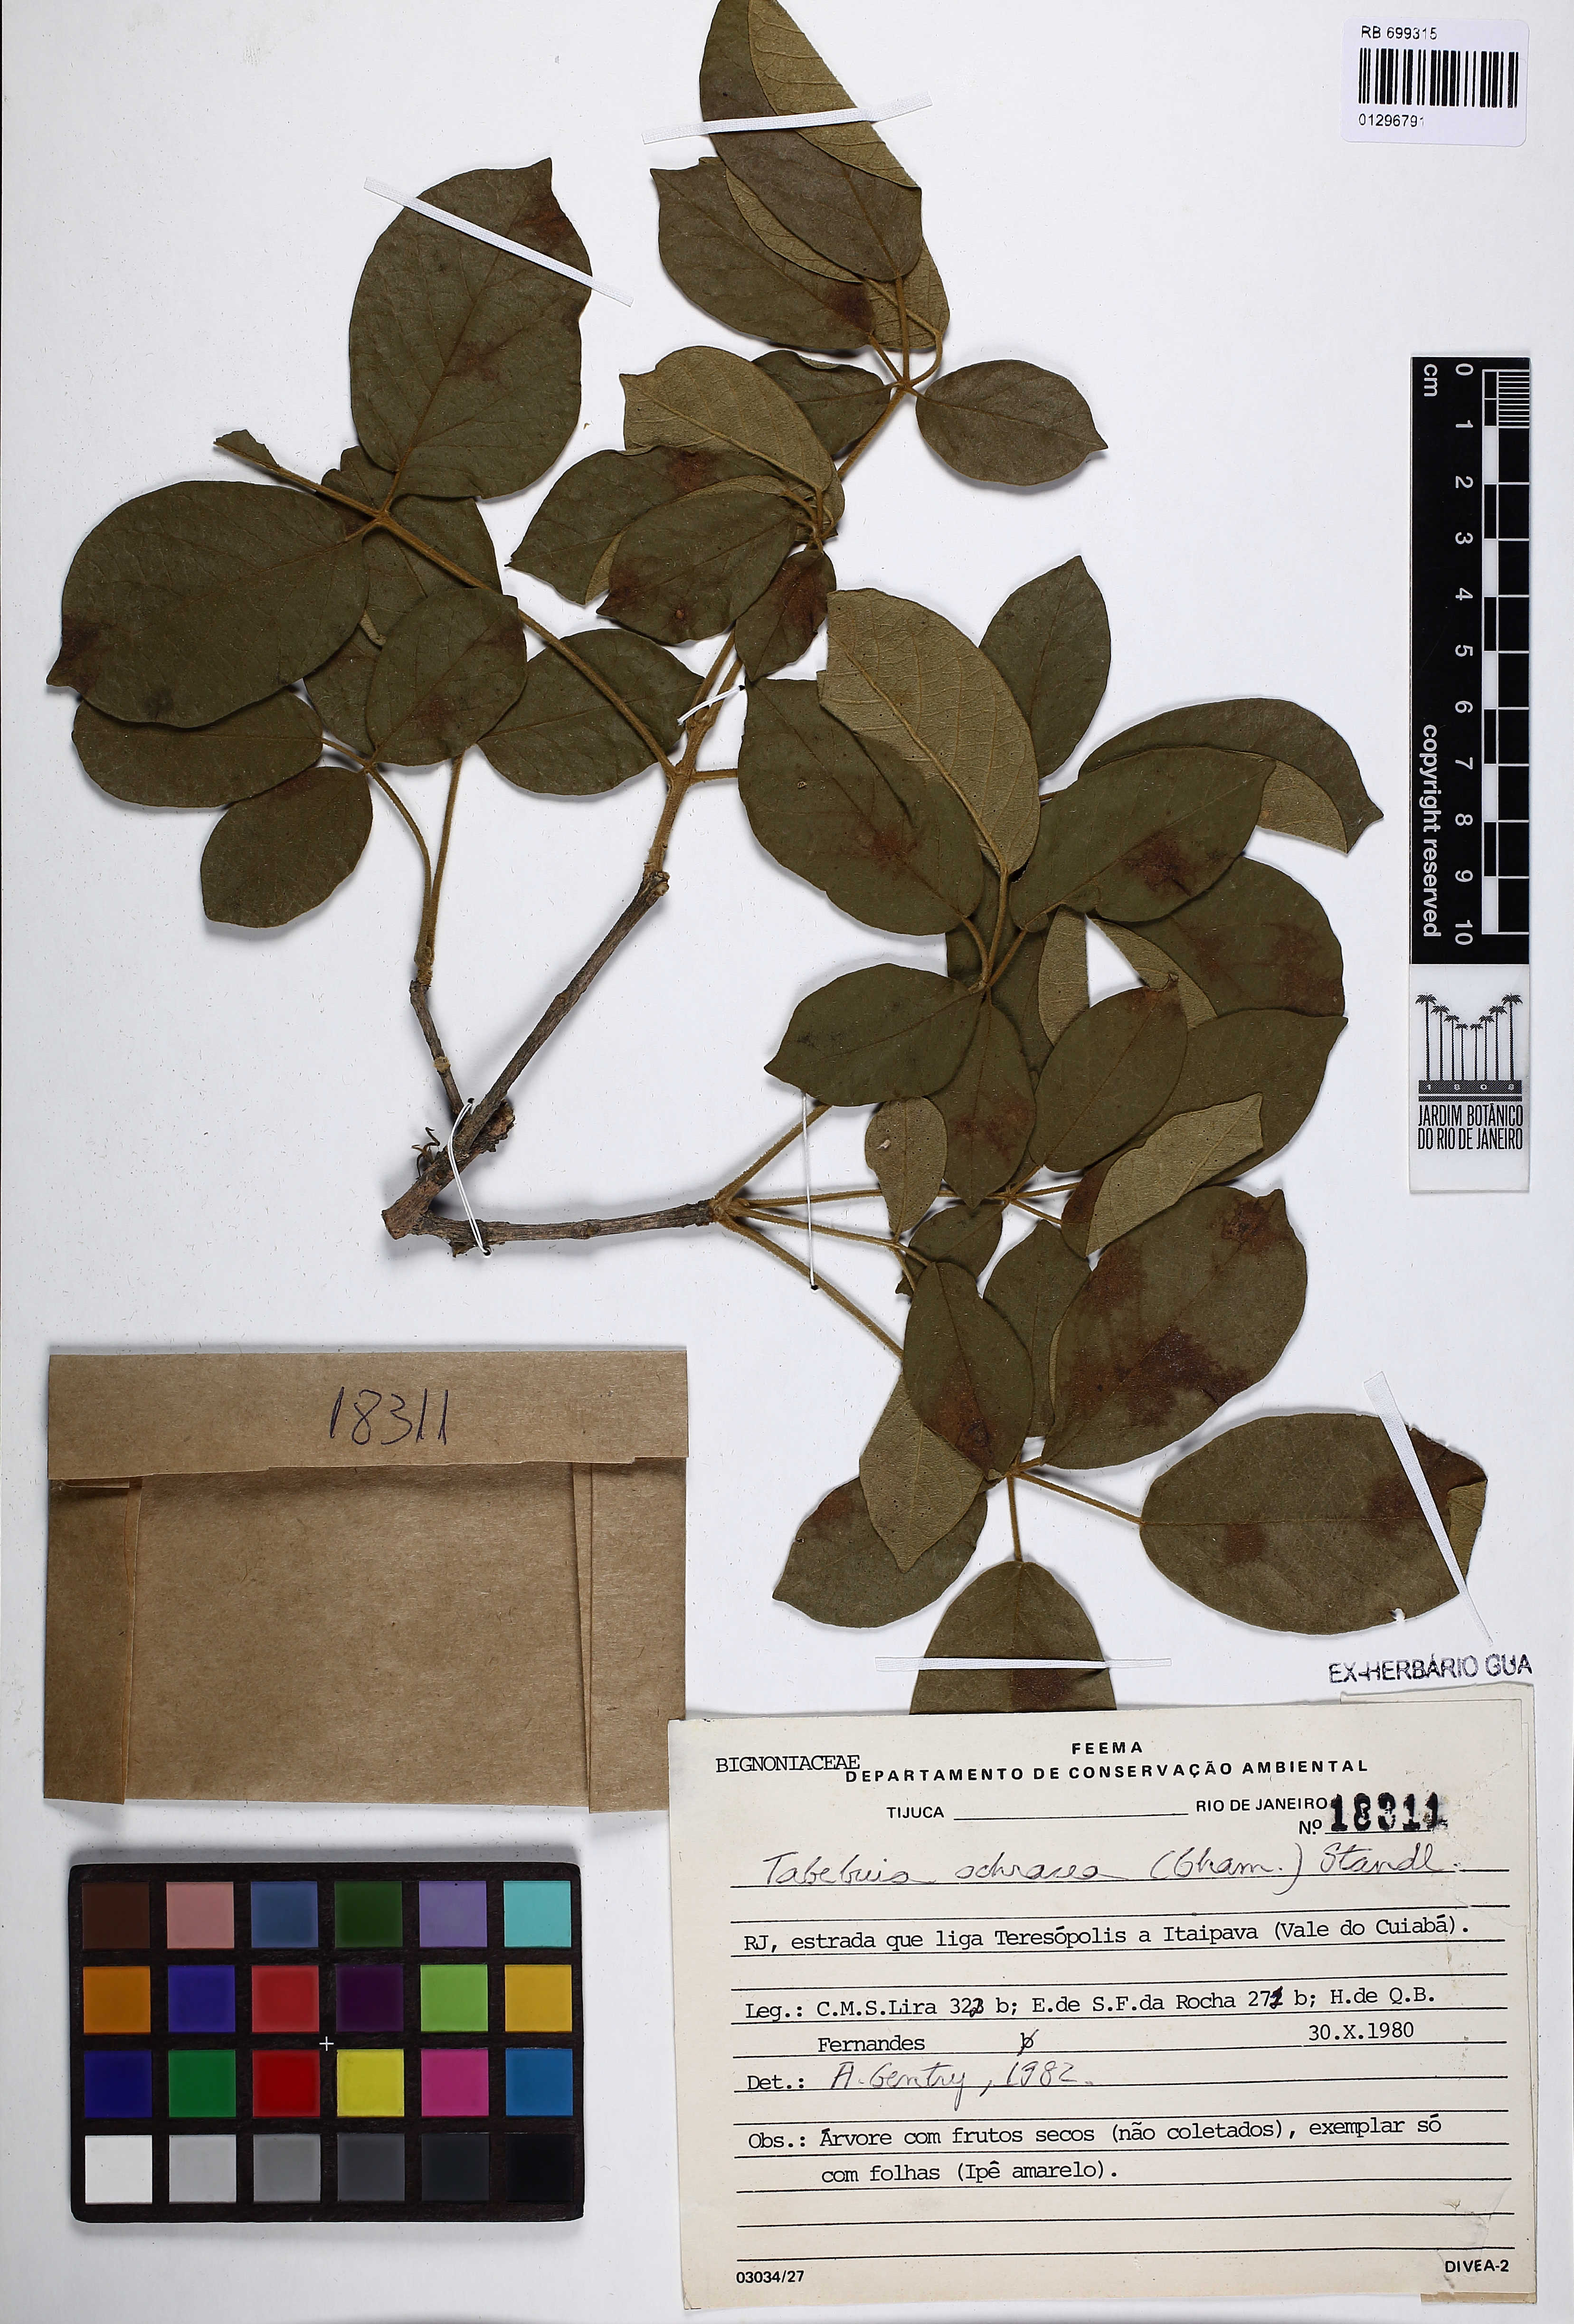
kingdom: Plantae
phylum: Tracheophyta
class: Magnoliopsida
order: Lamiales
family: Bignoniaceae
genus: Handroanthus
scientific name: Handroanthus ochraceus
